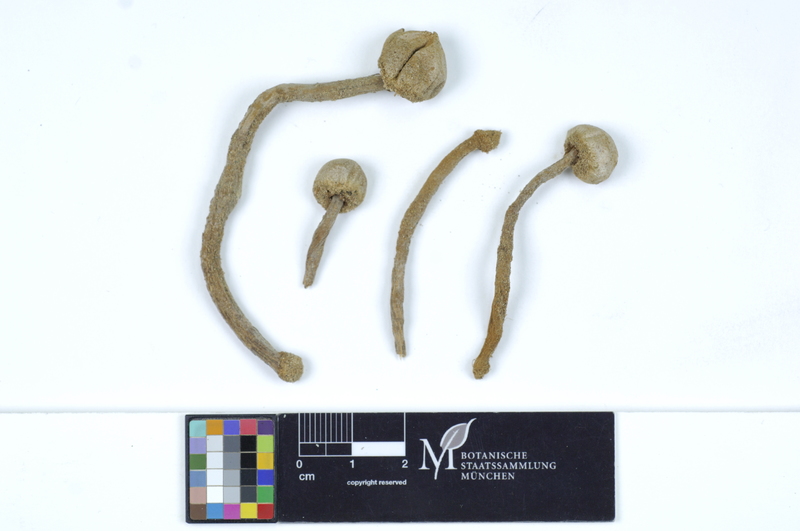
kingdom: Fungi
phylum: Basidiomycota
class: Agaricomycetes
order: Agaricales
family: Agaricaceae
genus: Tulostoma
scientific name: Tulostoma granulosum
